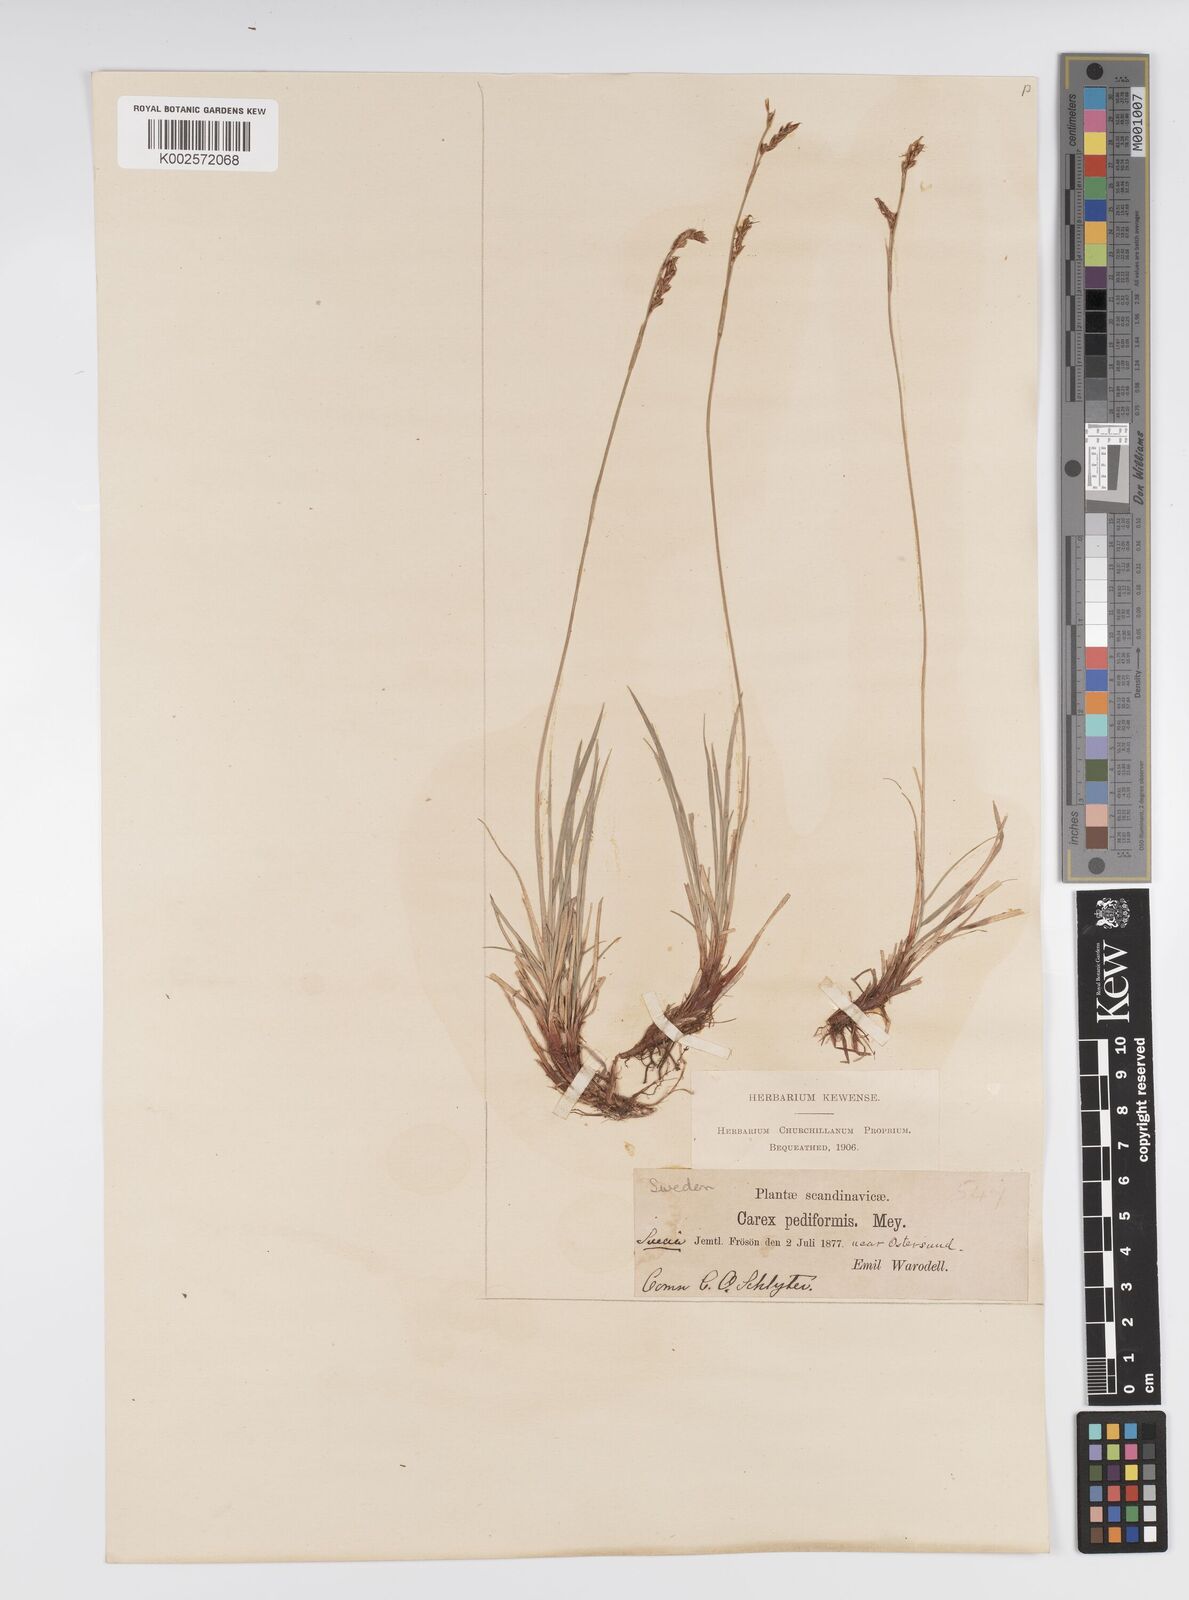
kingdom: Plantae
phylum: Tracheophyta
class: Liliopsida
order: Poales
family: Cyperaceae
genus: Carex
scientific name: Carex pediformis
